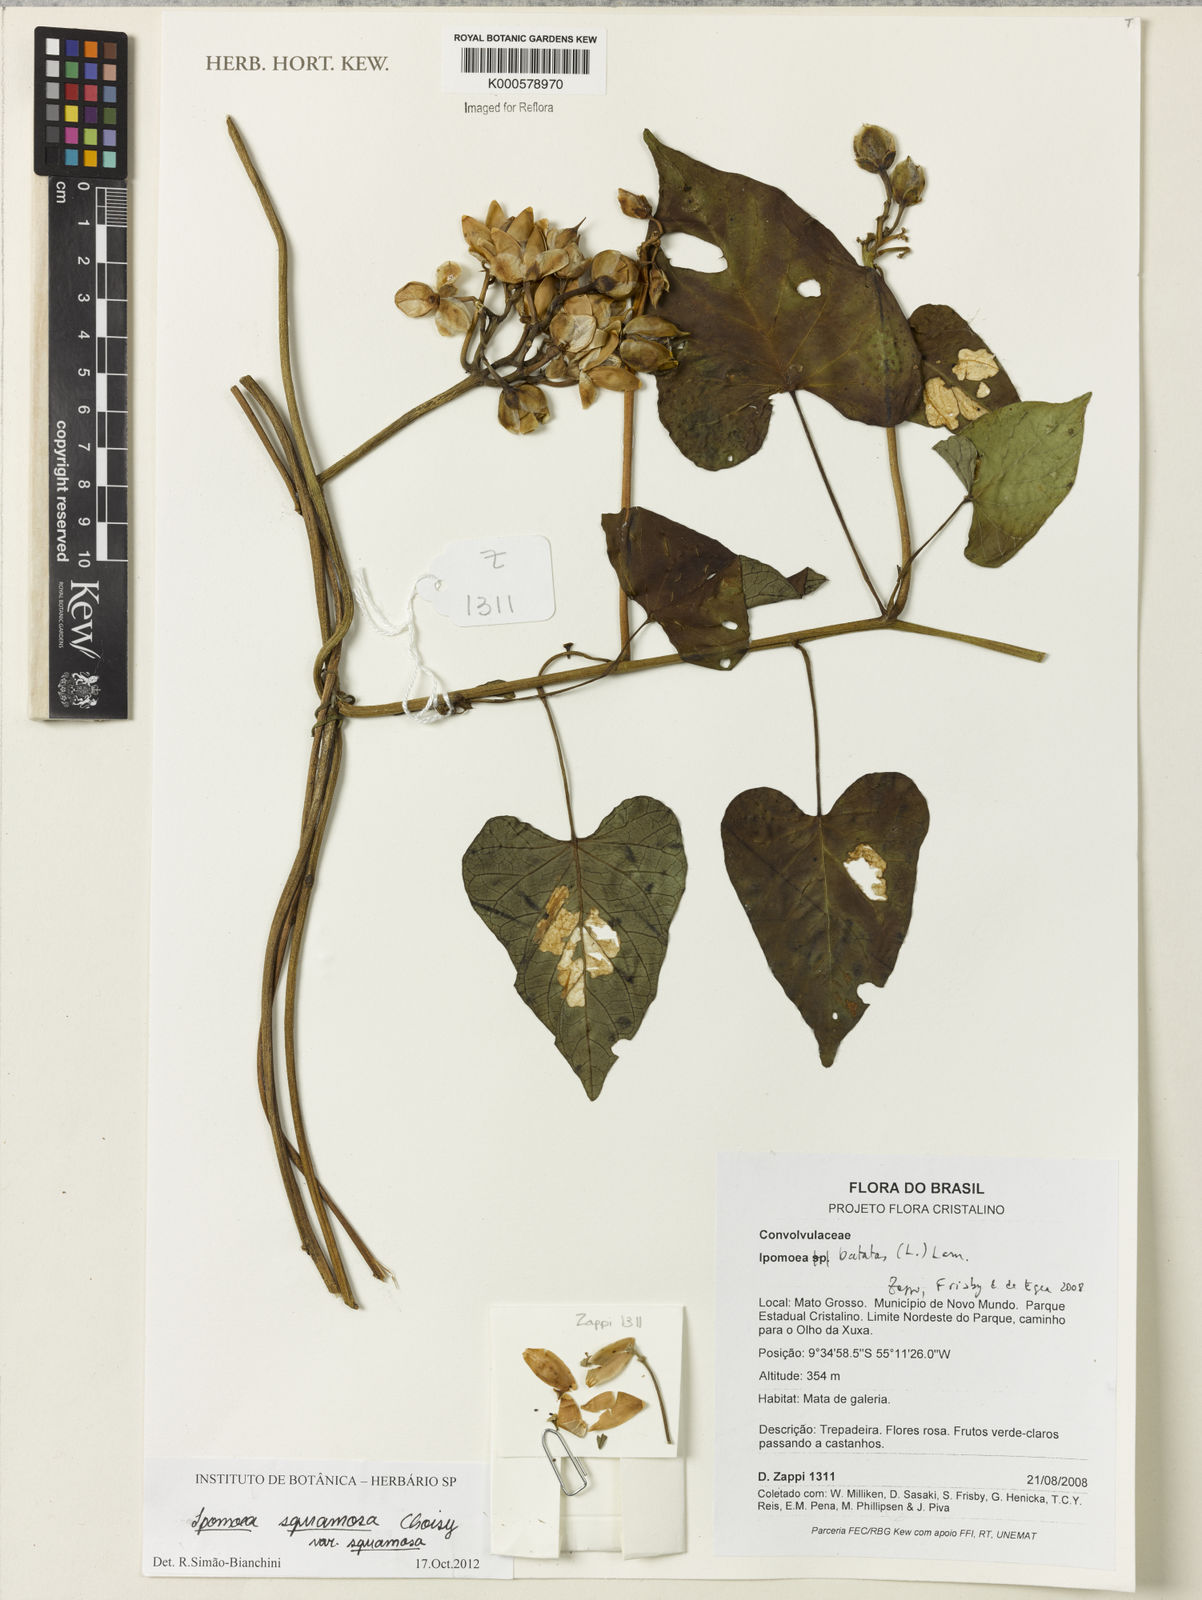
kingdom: Plantae
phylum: Tracheophyta
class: Magnoliopsida
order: Solanales
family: Convolvulaceae
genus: Ipomoea
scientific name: Ipomoea batatas
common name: Sweet-potato
